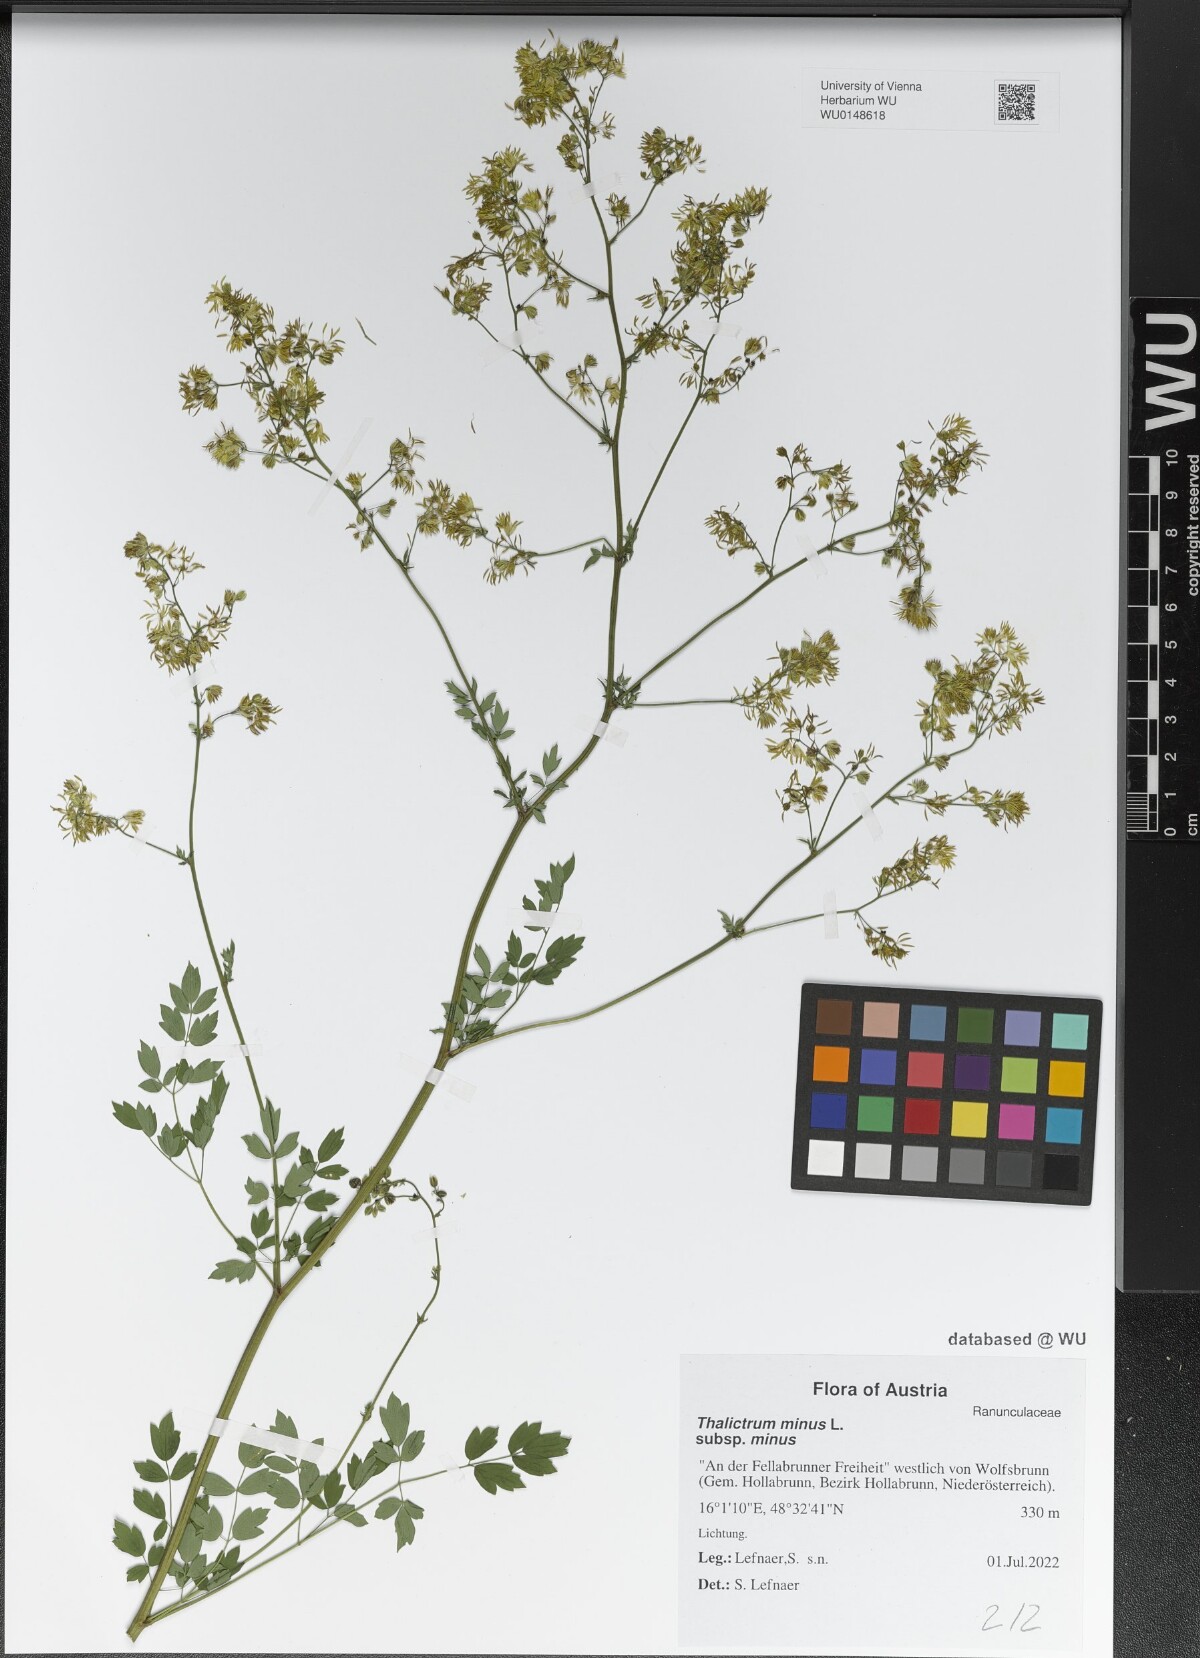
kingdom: Plantae
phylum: Tracheophyta
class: Magnoliopsida
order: Ranunculales
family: Ranunculaceae
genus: Thalictrum
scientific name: Thalictrum minus
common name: Lesser meadow-rue
